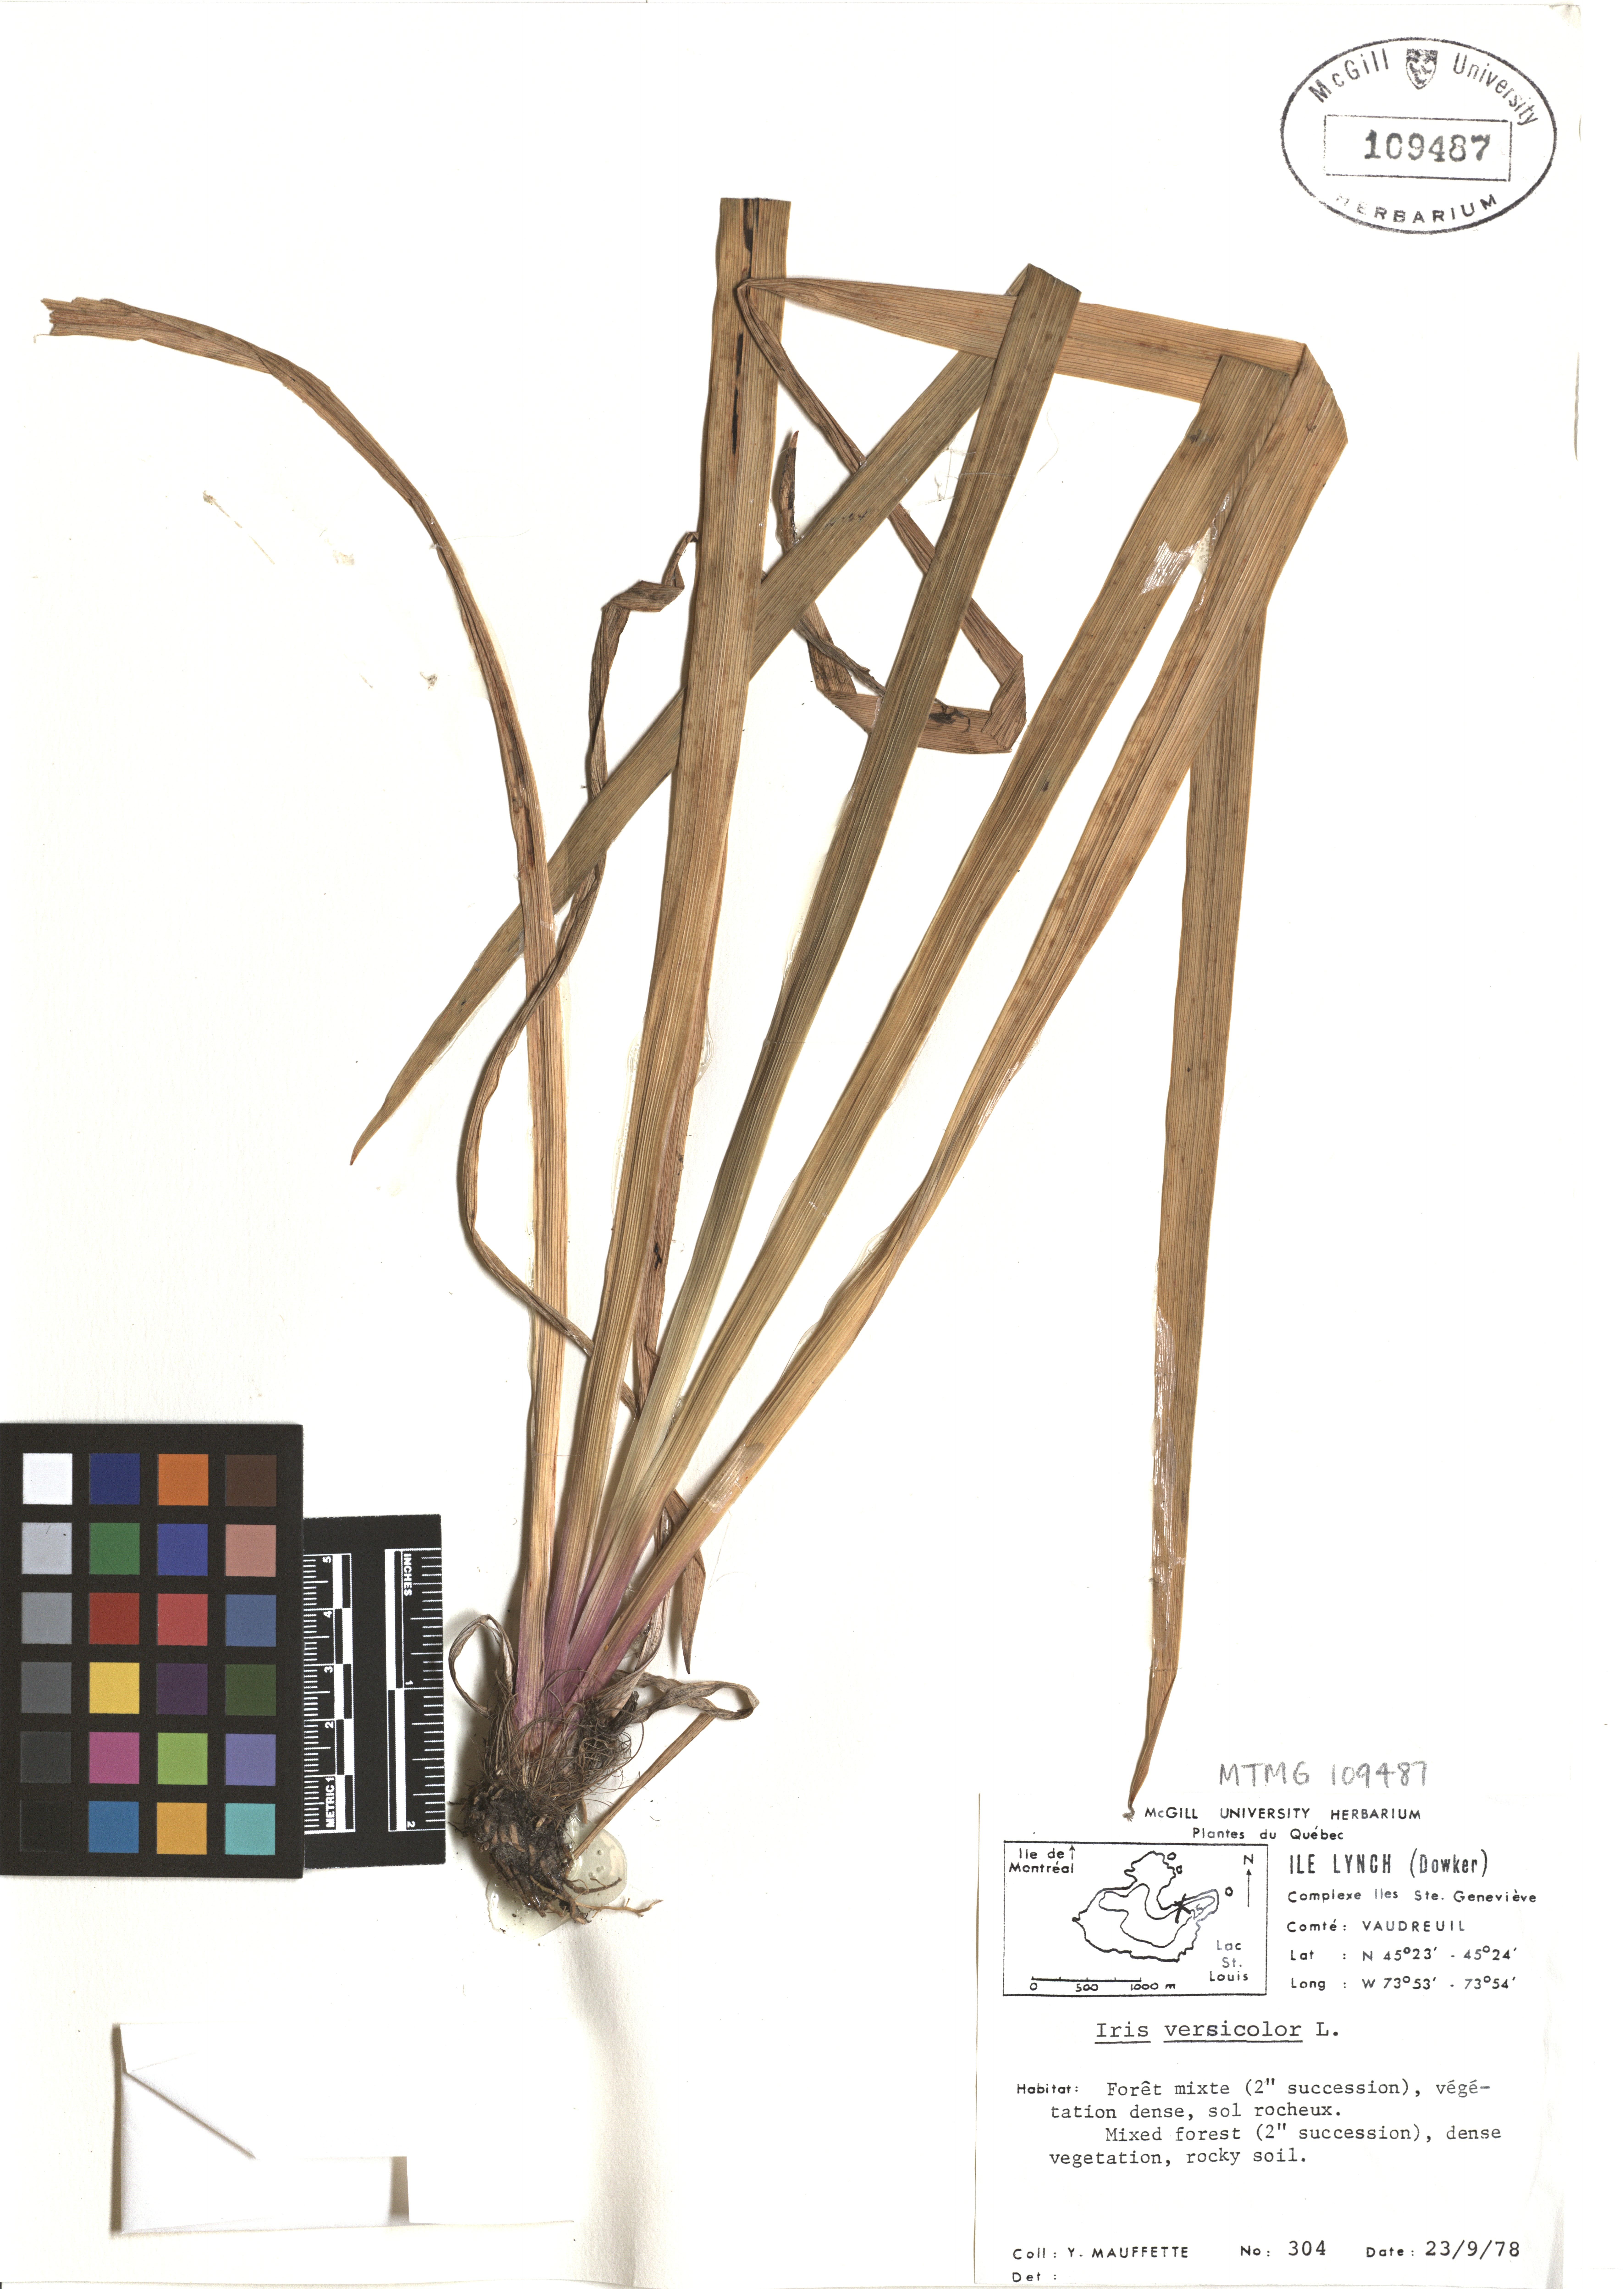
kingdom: Plantae
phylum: Tracheophyta
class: Liliopsida
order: Asparagales
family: Iridaceae
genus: Iris
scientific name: Iris versicolor
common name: Purple iris
